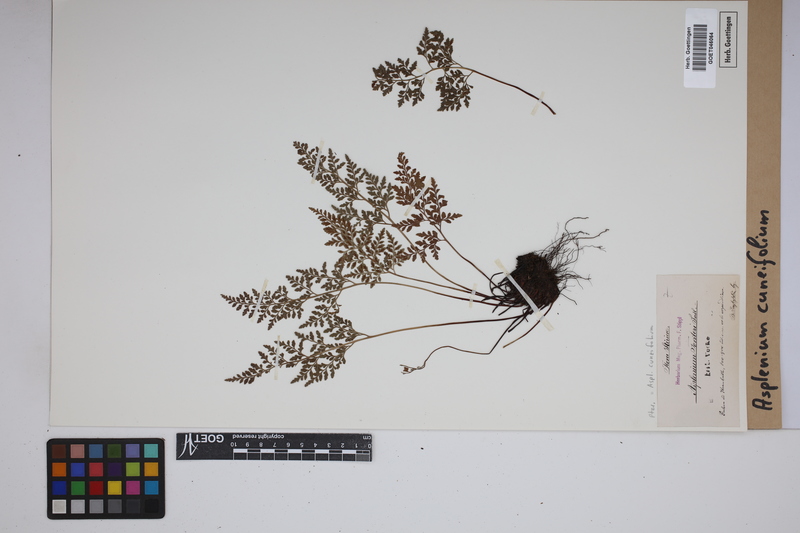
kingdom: Plantae
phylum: Tracheophyta
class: Polypodiopsida
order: Polypodiales
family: Aspleniaceae
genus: Asplenium
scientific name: Asplenium cuneifolium
